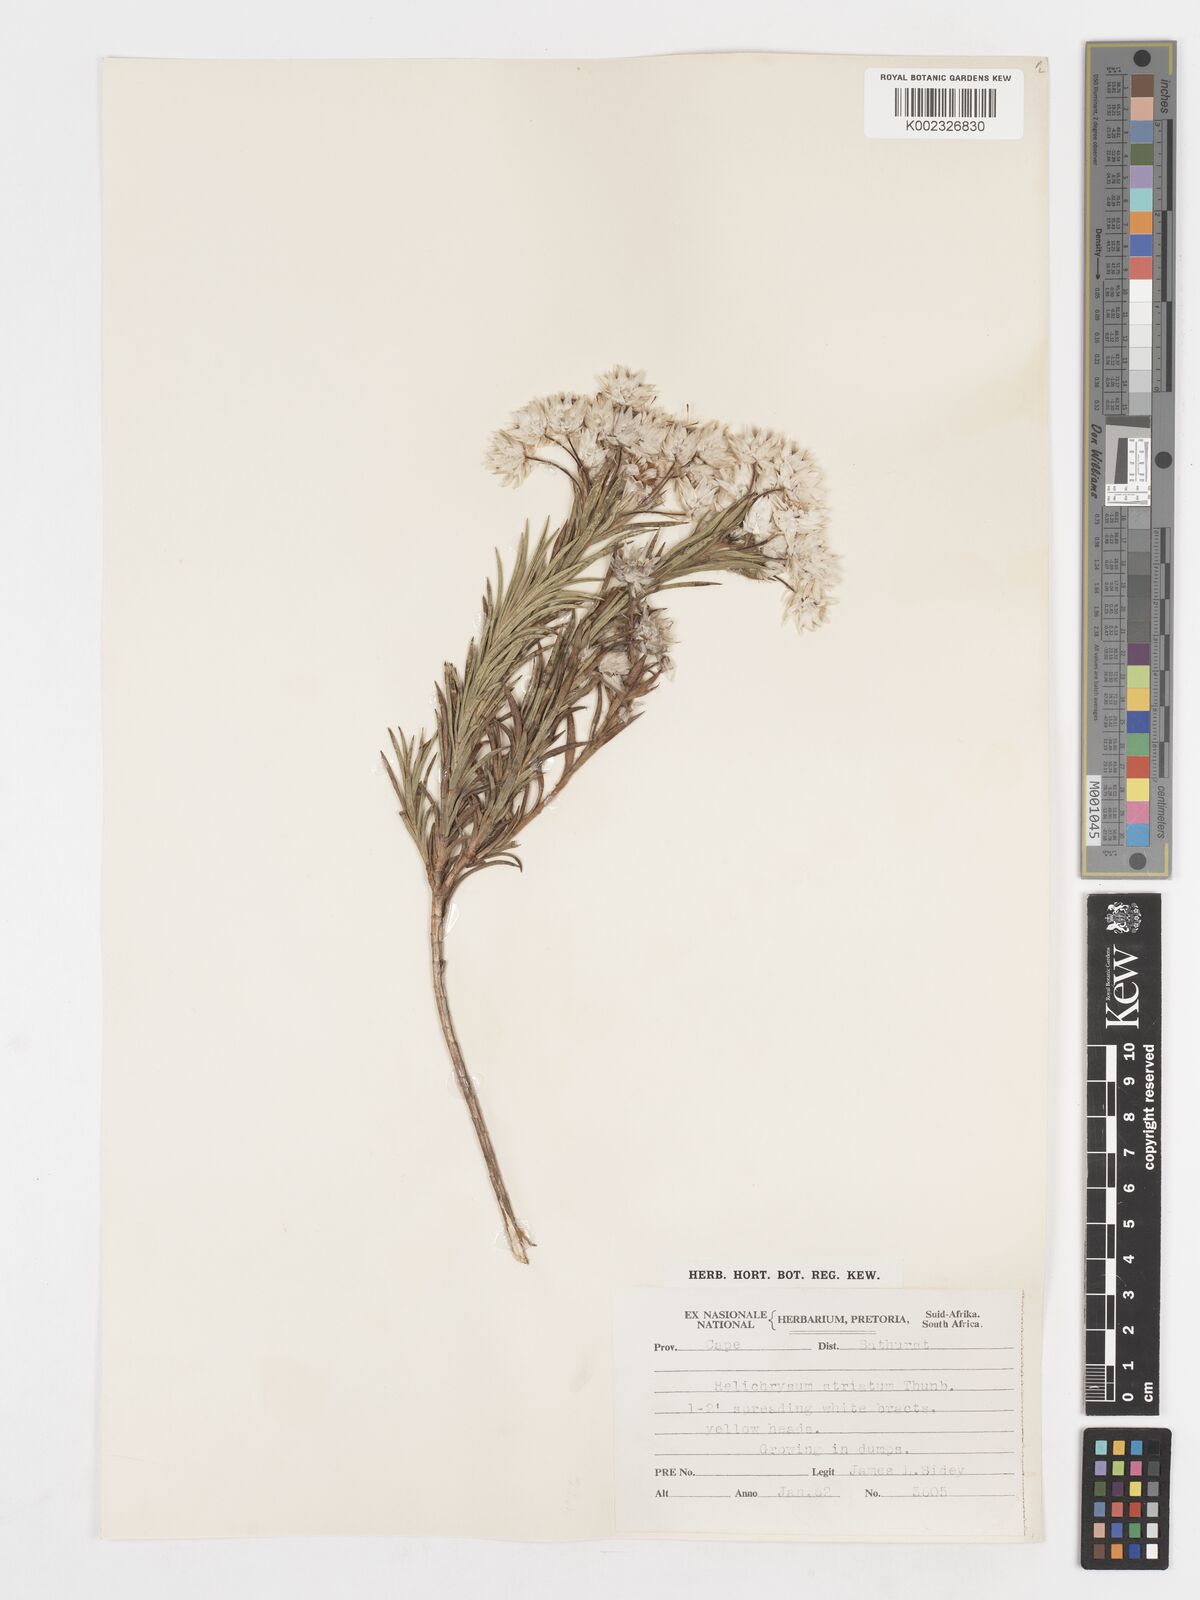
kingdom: Plantae
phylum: Tracheophyta
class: Magnoliopsida
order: Asterales
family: Asteraceae
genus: Achyranthemum
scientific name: Achyranthemum striatum
